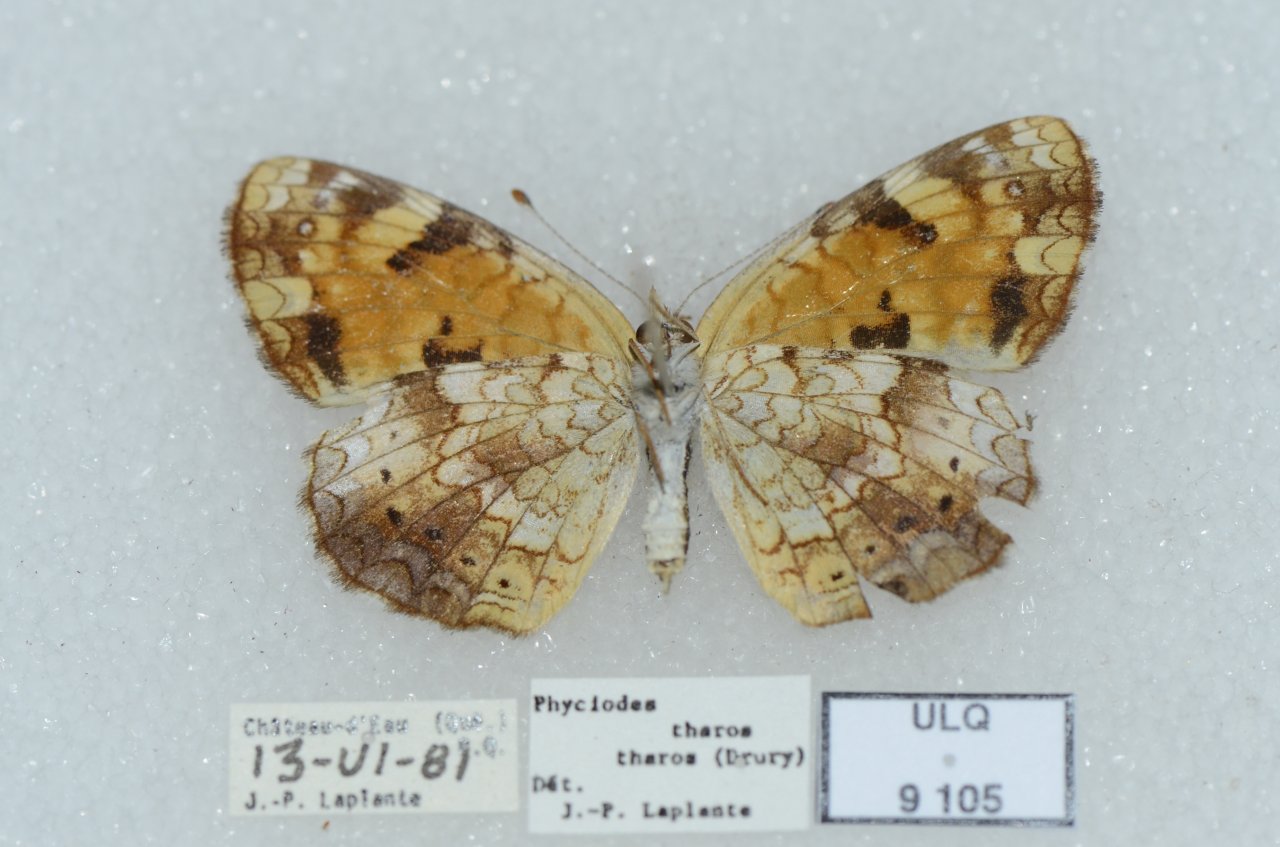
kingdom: Animalia
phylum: Arthropoda
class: Insecta
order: Lepidoptera
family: Nymphalidae
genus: Phyciodes
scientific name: Phyciodes tharos
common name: Northern Crescent
